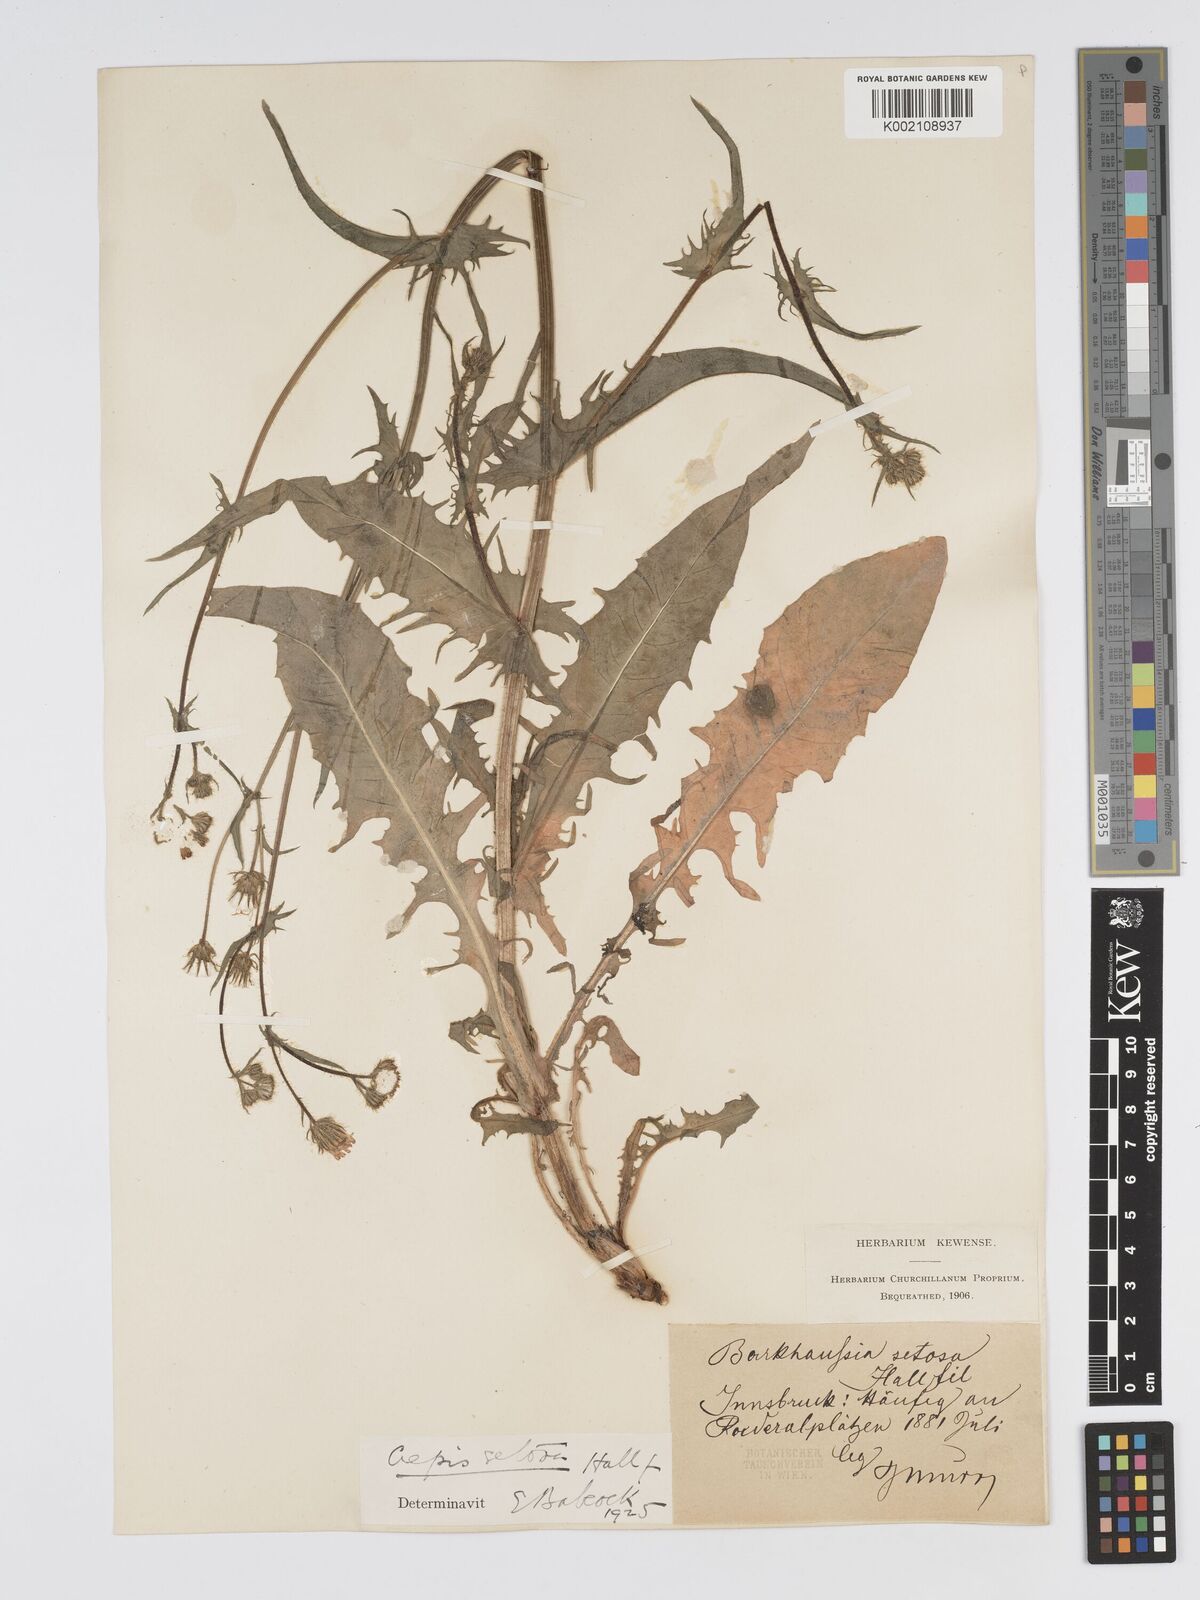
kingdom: Plantae
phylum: Tracheophyta
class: Magnoliopsida
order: Asterales
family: Asteraceae
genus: Crepis
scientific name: Crepis setosa
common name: Bristly hawk's-beard
